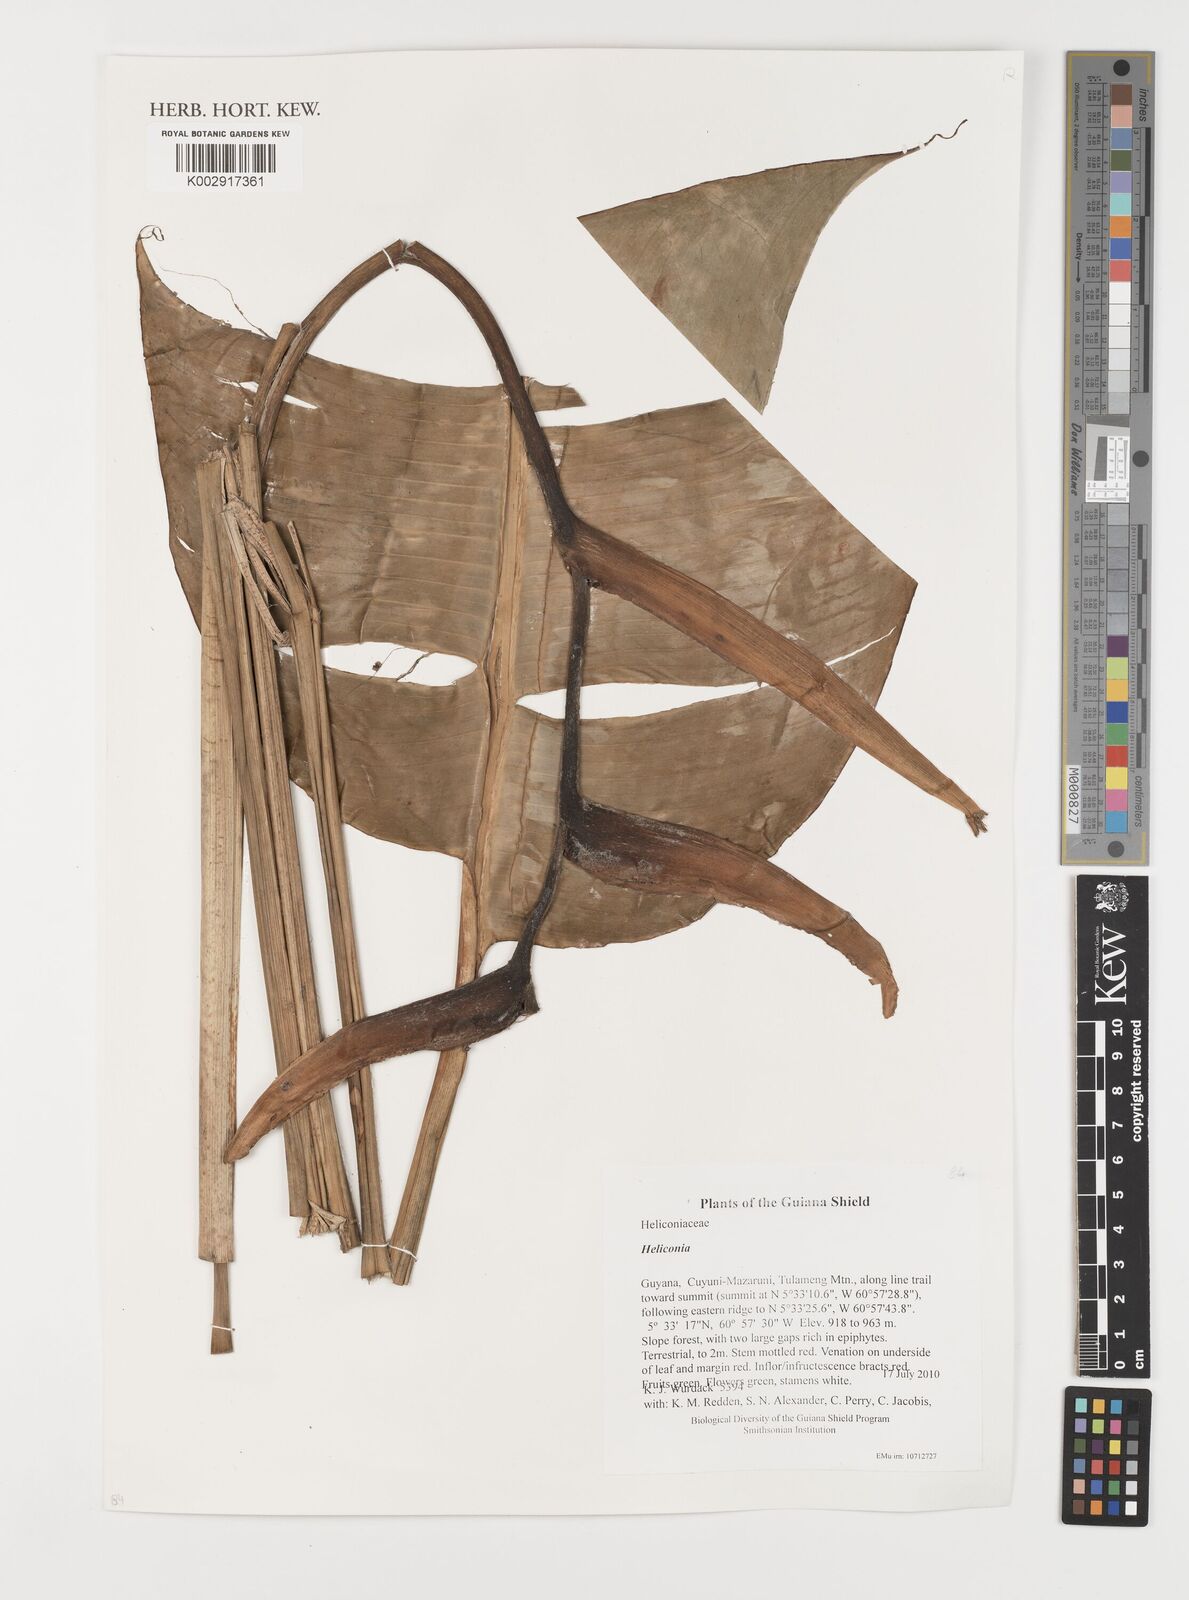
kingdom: Plantae
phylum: Tracheophyta
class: Liliopsida
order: Zingiberales
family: Heliconiaceae
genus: Heliconia
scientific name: Heliconia
